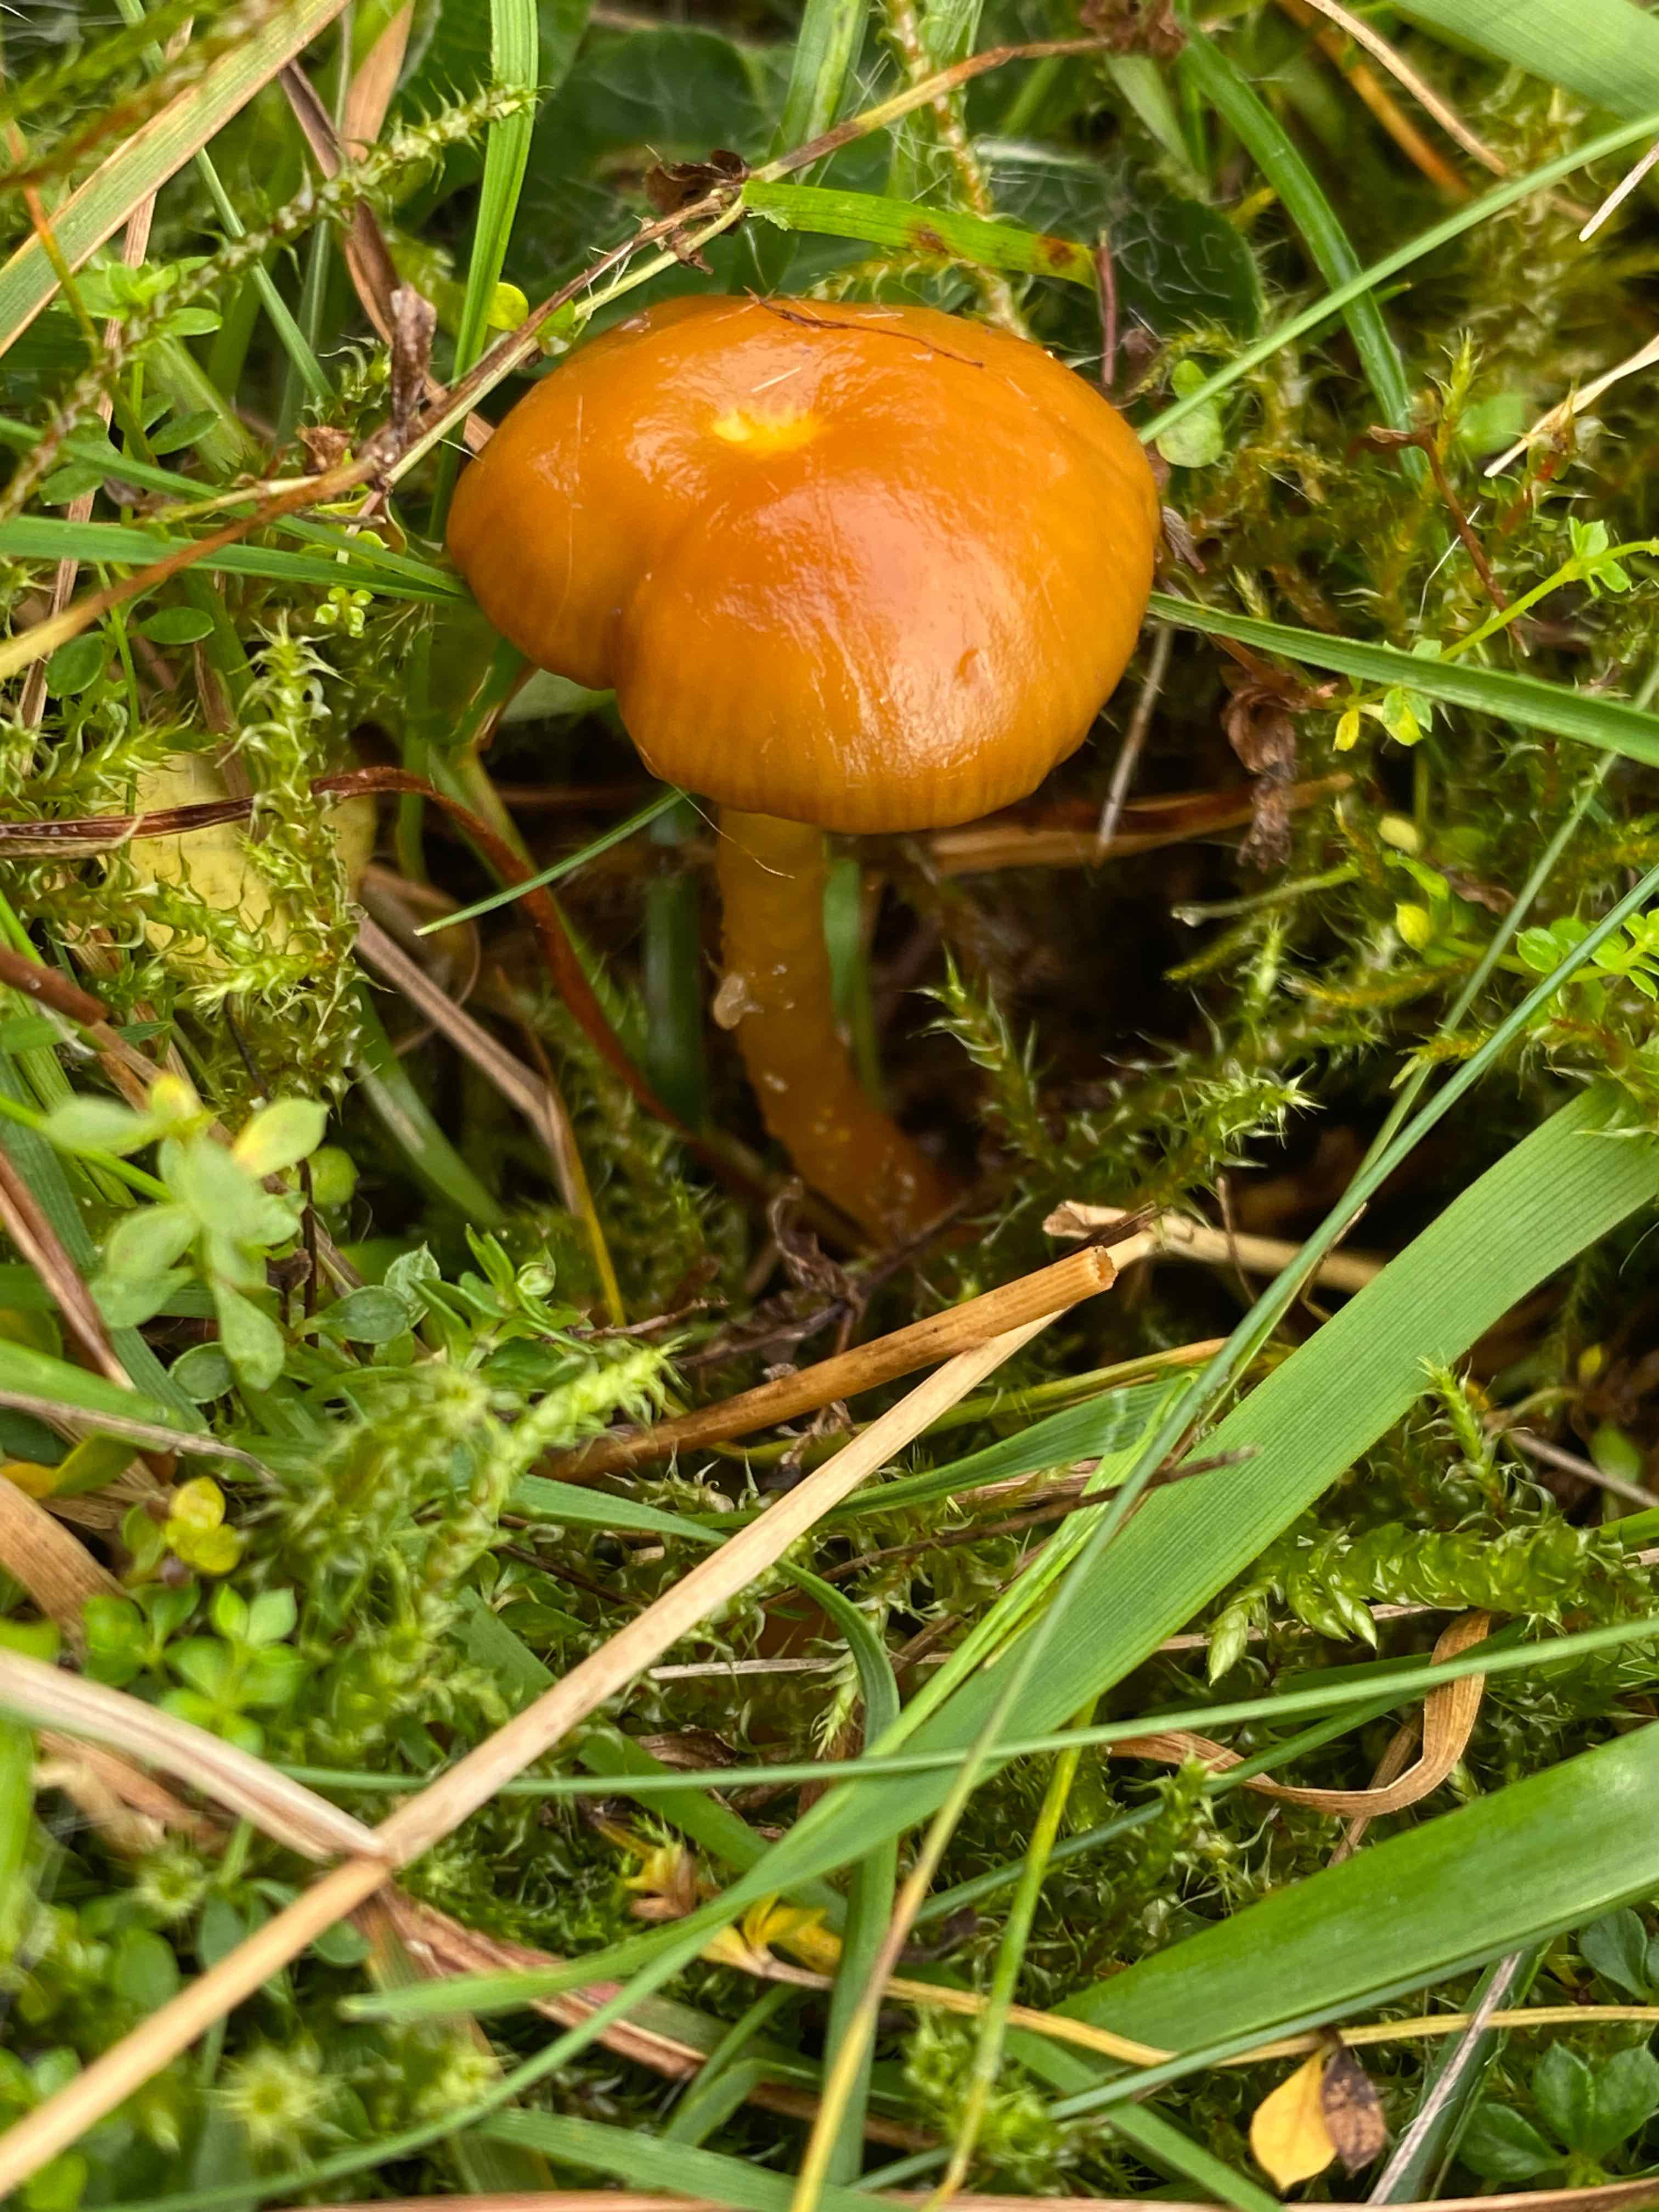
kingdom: Fungi
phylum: Basidiomycota
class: Agaricomycetes
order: Agaricales
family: Hygrophoraceae
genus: Gliophorus
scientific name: Gliophorus laetus
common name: brusk-vokshat
